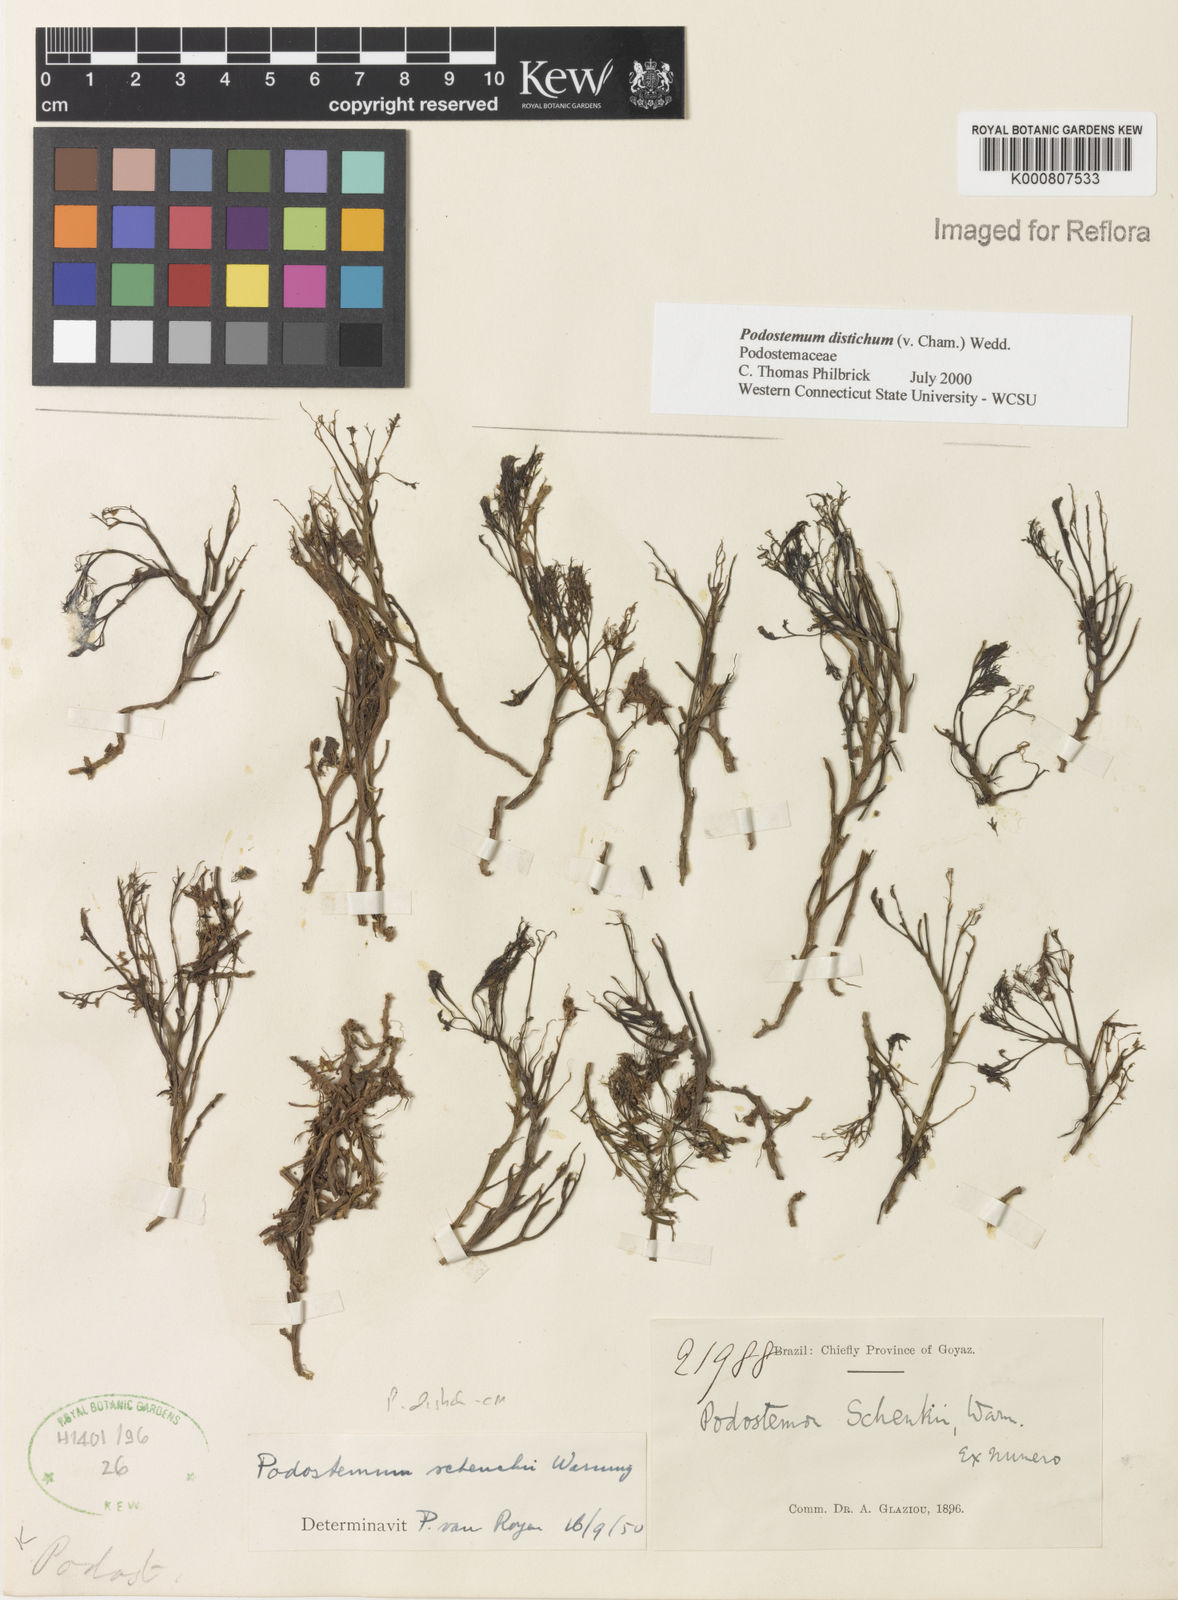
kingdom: Plantae
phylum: Tracheophyta
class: Magnoliopsida
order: Malpighiales
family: Podostemaceae
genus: Podostemum
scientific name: Podostemum distichum
